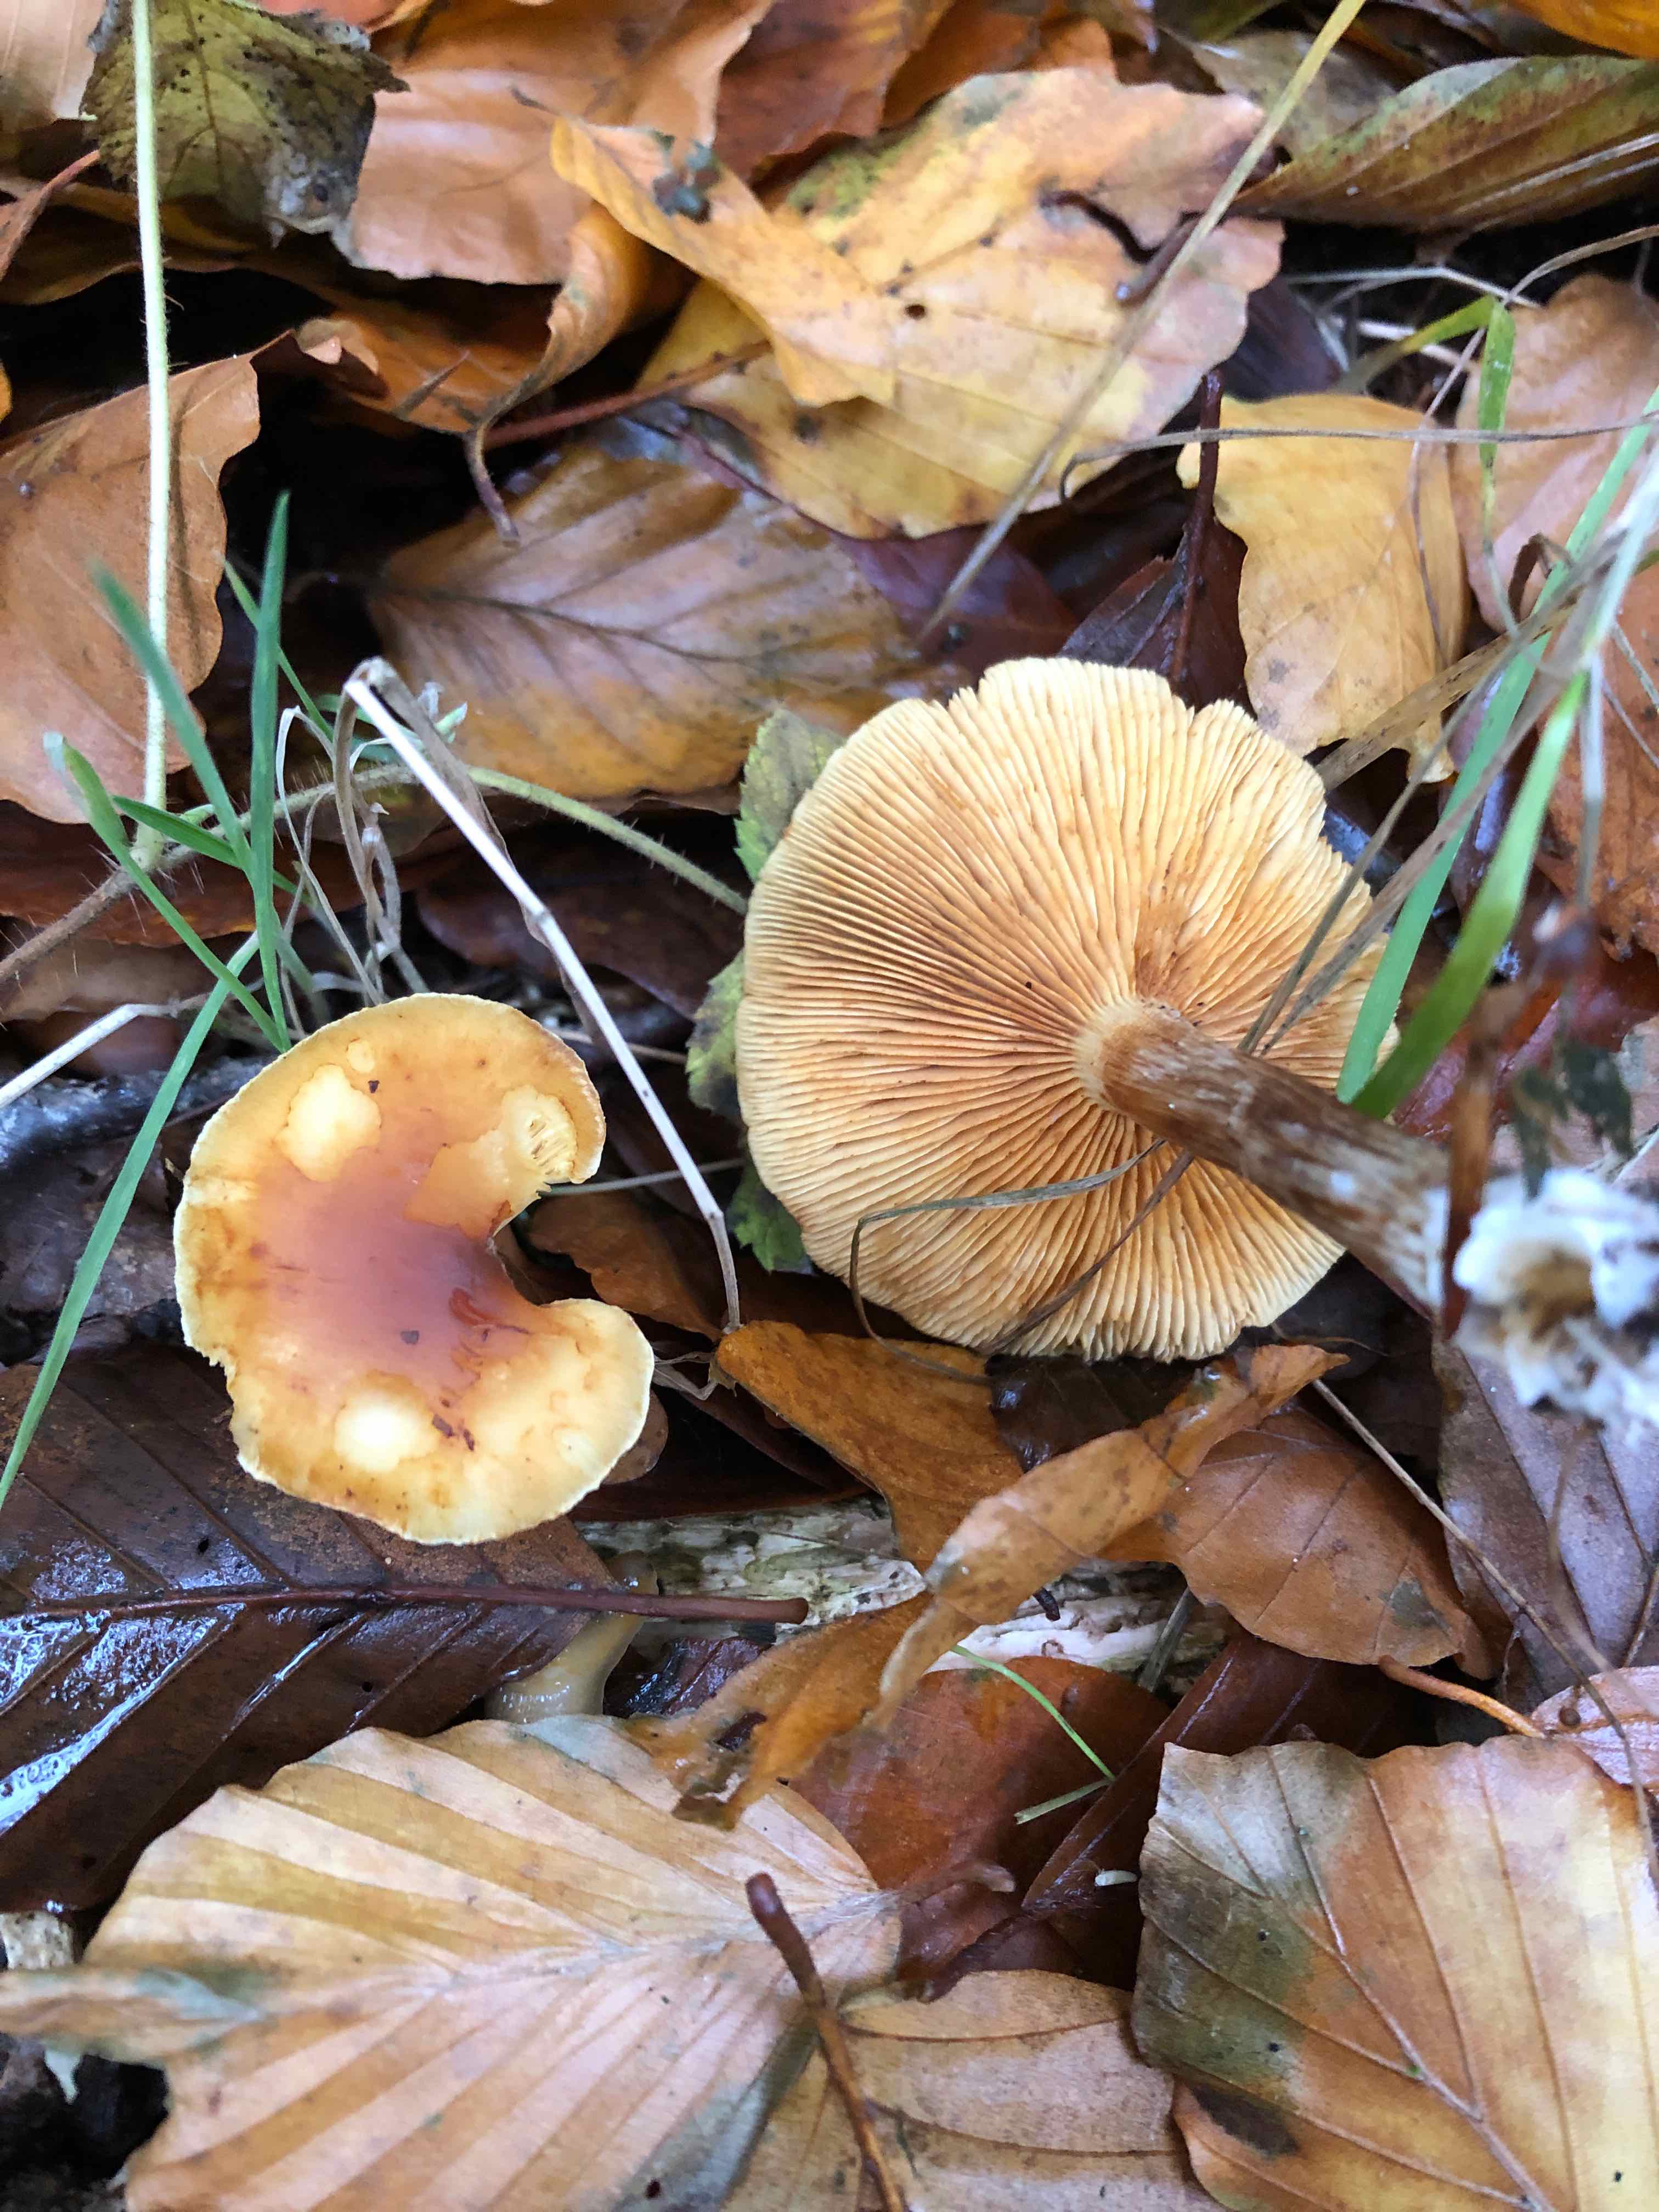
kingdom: Fungi
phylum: Basidiomycota
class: Agaricomycetes
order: Agaricales
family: Hymenogastraceae
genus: Gymnopilus
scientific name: Gymnopilus penetrans
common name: plettet flammehat
